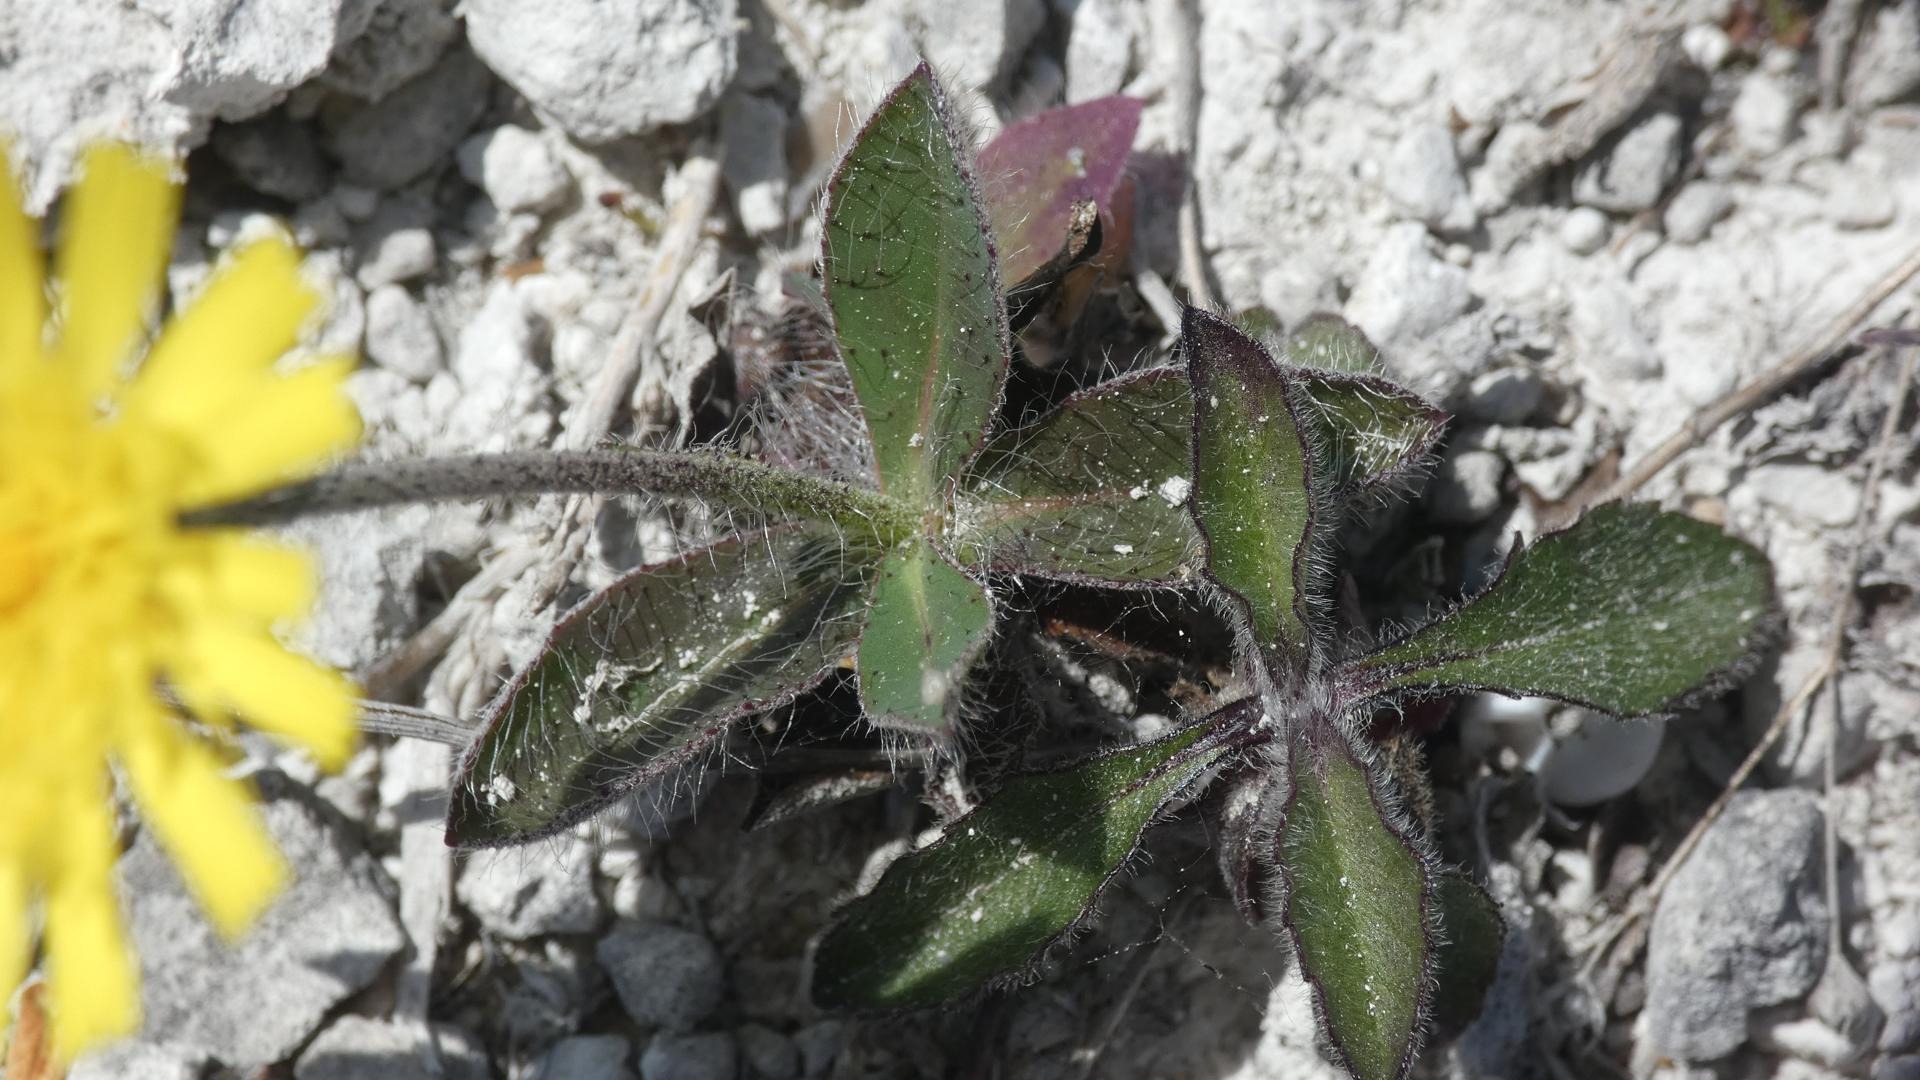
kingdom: Plantae
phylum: Tracheophyta
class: Magnoliopsida
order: Asterales
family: Asteraceae
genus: Pilosella
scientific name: Pilosella officinarum
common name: Håret høgeurt
